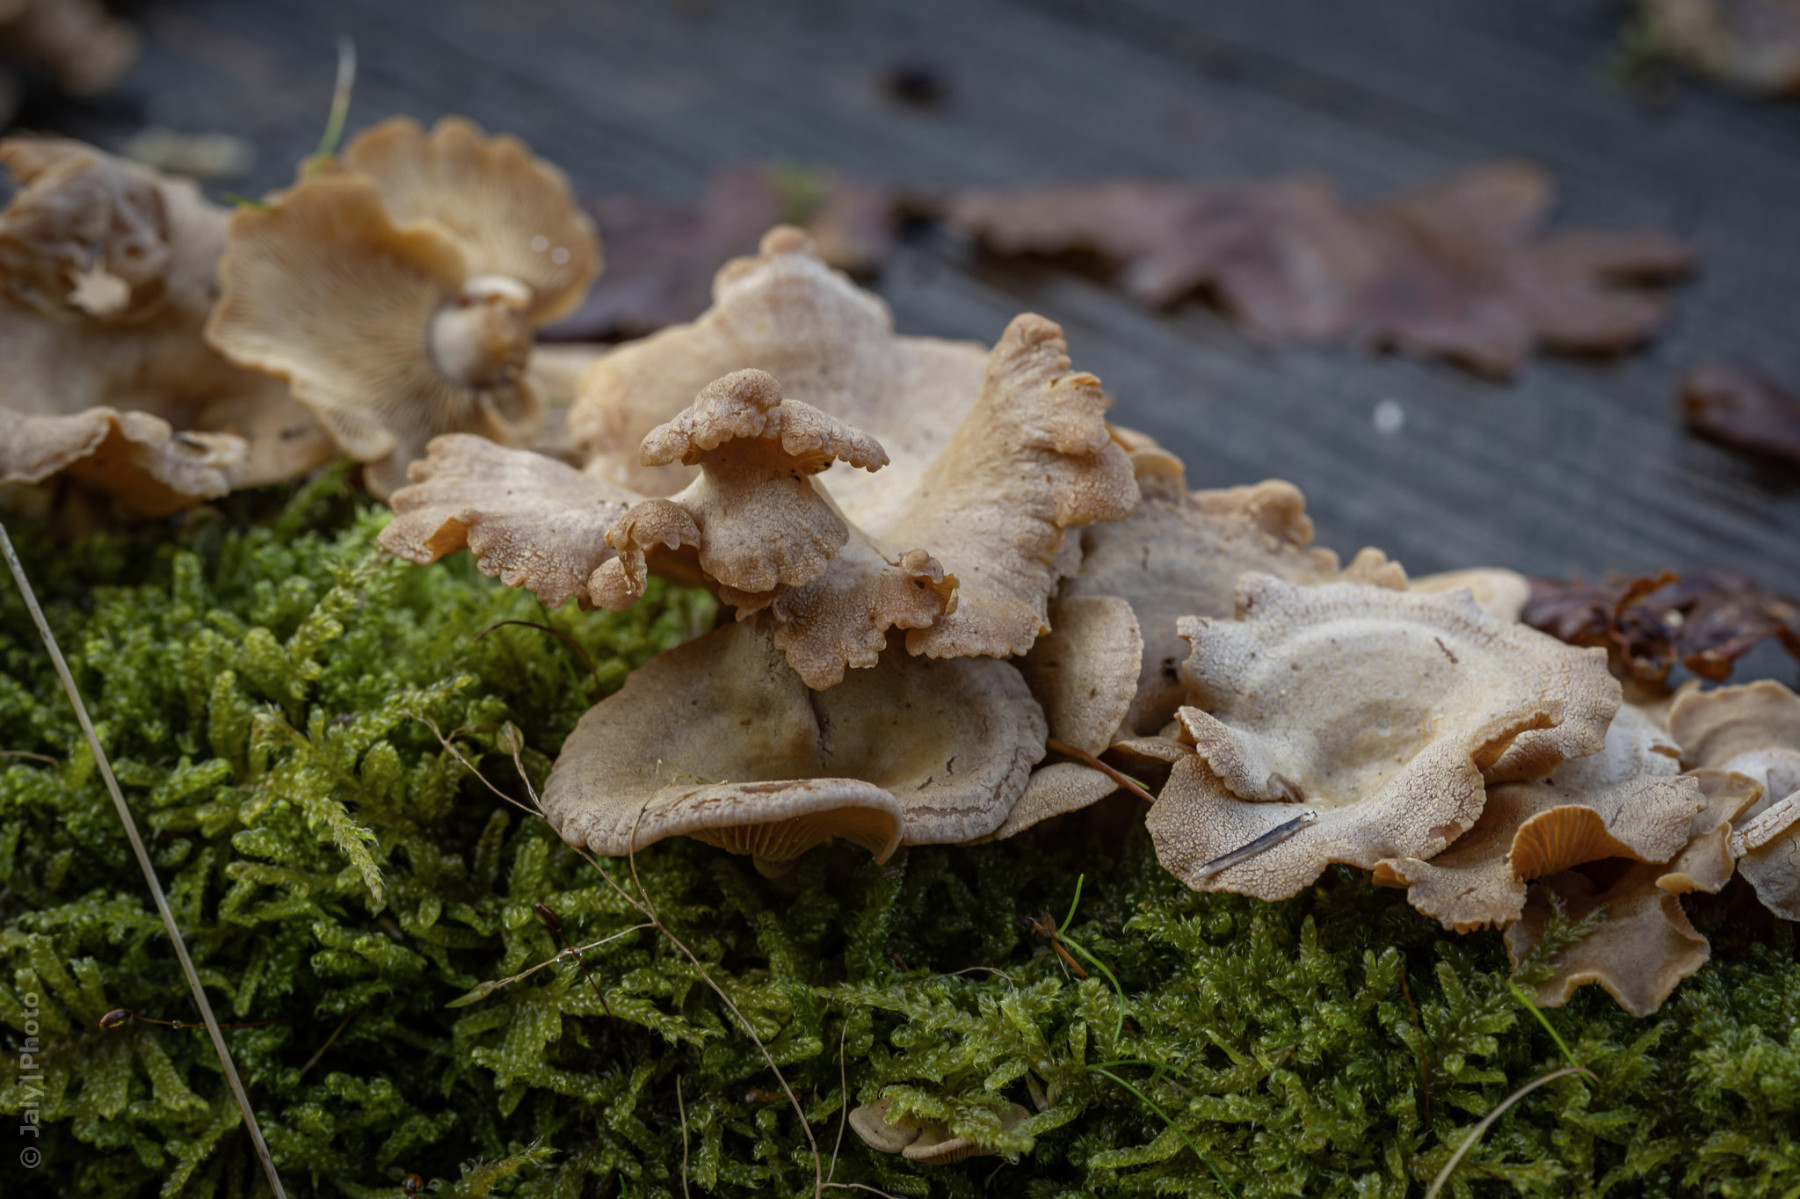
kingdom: Fungi
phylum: Basidiomycota
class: Agaricomycetes
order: Agaricales
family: Mycenaceae
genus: Panellus
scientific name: Panellus stipticus
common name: kliddet epaulethat
